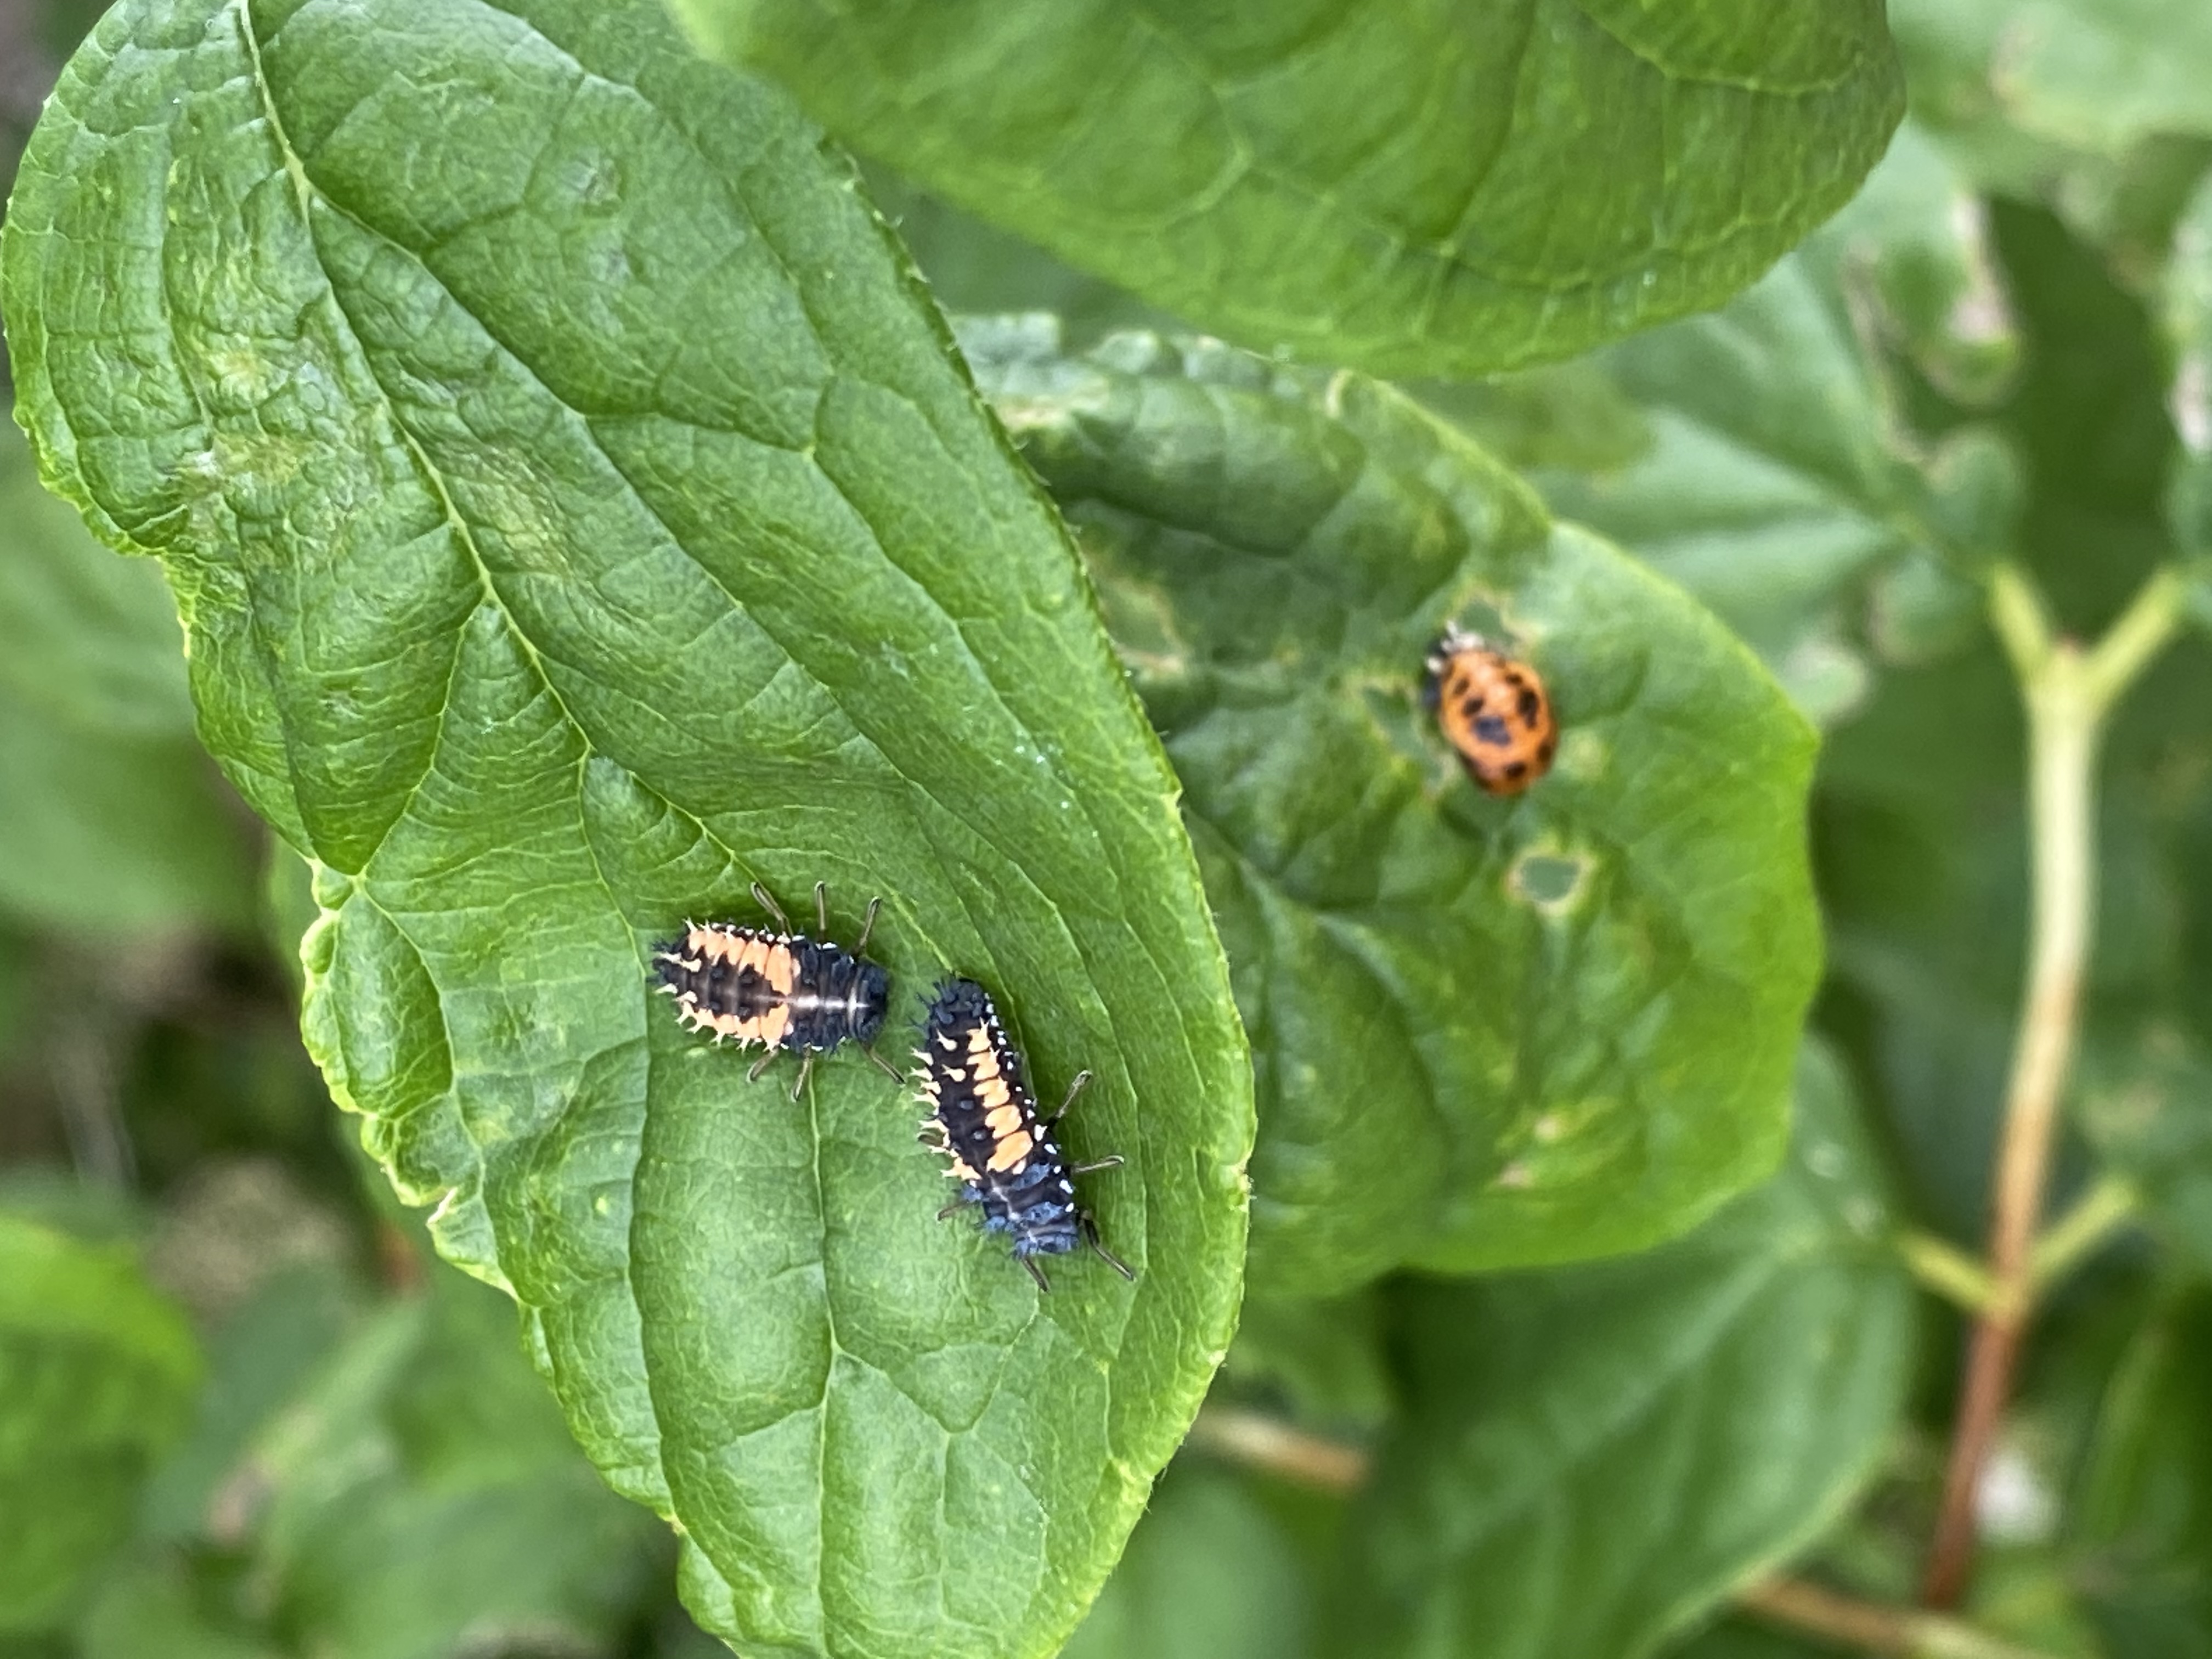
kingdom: Animalia
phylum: Arthropoda
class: Insecta
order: Coleoptera
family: Coccinellidae
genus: Harmonia
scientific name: Harmonia axyridis
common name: Harlekinmariehøne
